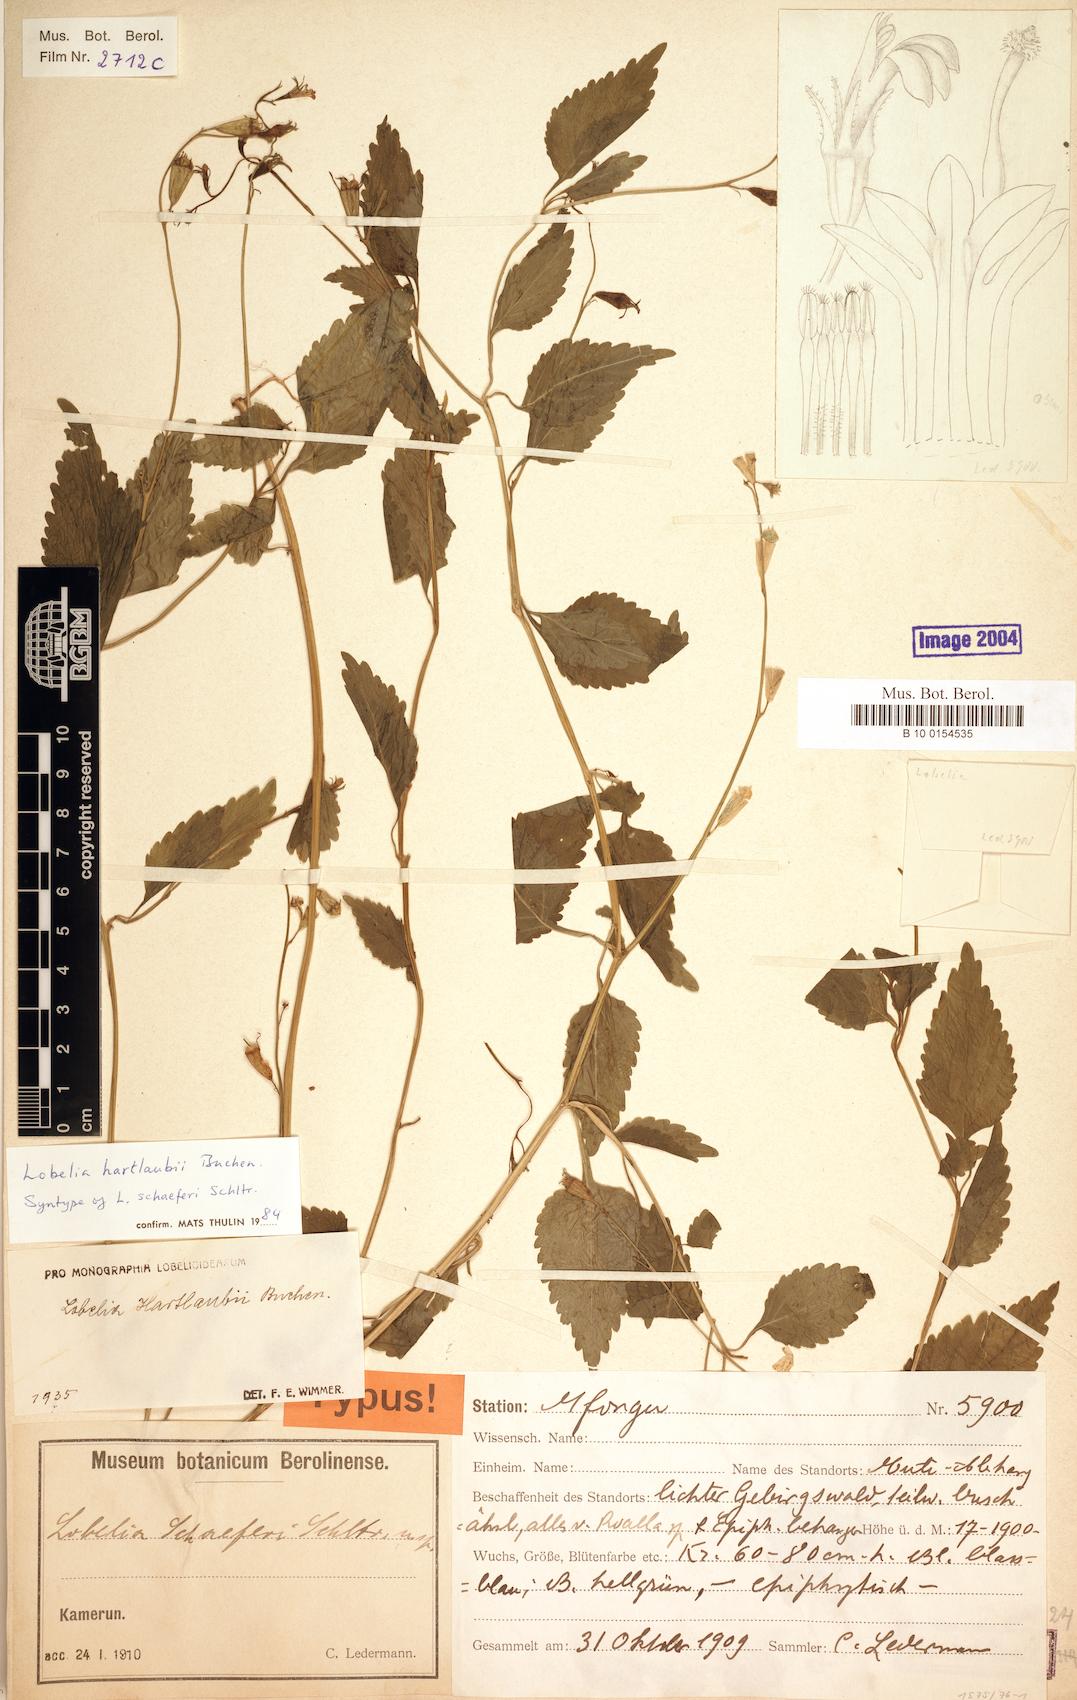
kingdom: Plantae
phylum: Tracheophyta
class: Magnoliopsida
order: Asterales
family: Campanulaceae
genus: Lobelia
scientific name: Lobelia hartlaubii
